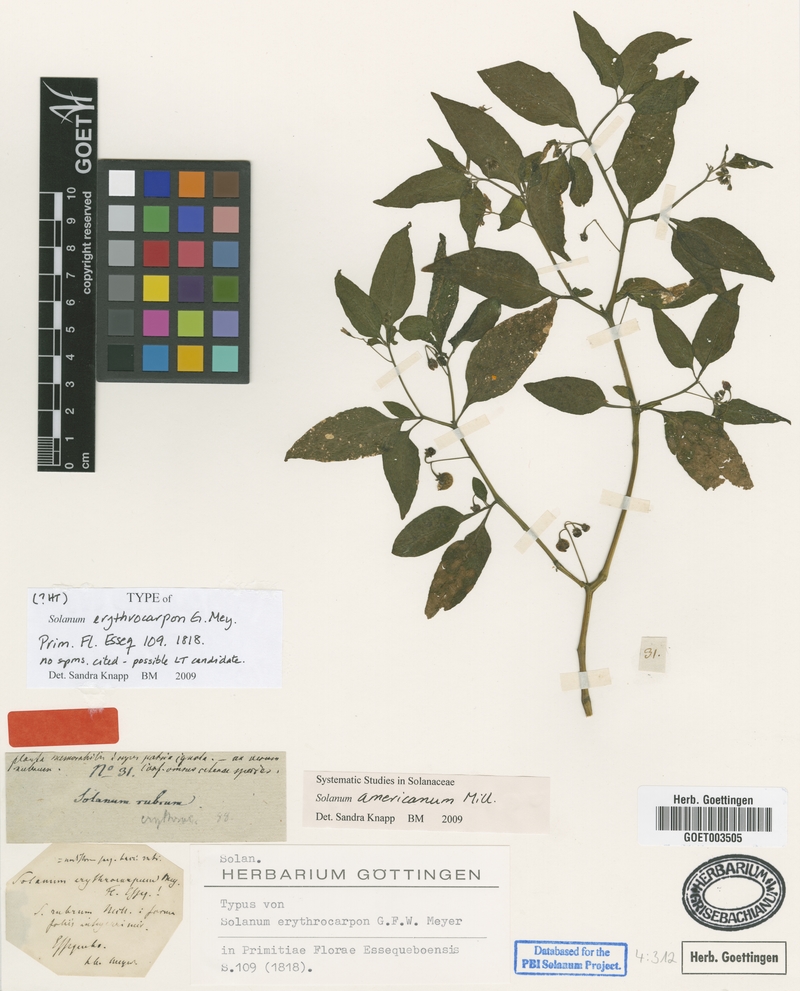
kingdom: Plantae
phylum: Tracheophyta
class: Magnoliopsida
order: Solanales
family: Solanaceae
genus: Solanum
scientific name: Solanum americanum
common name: American black nightshade
